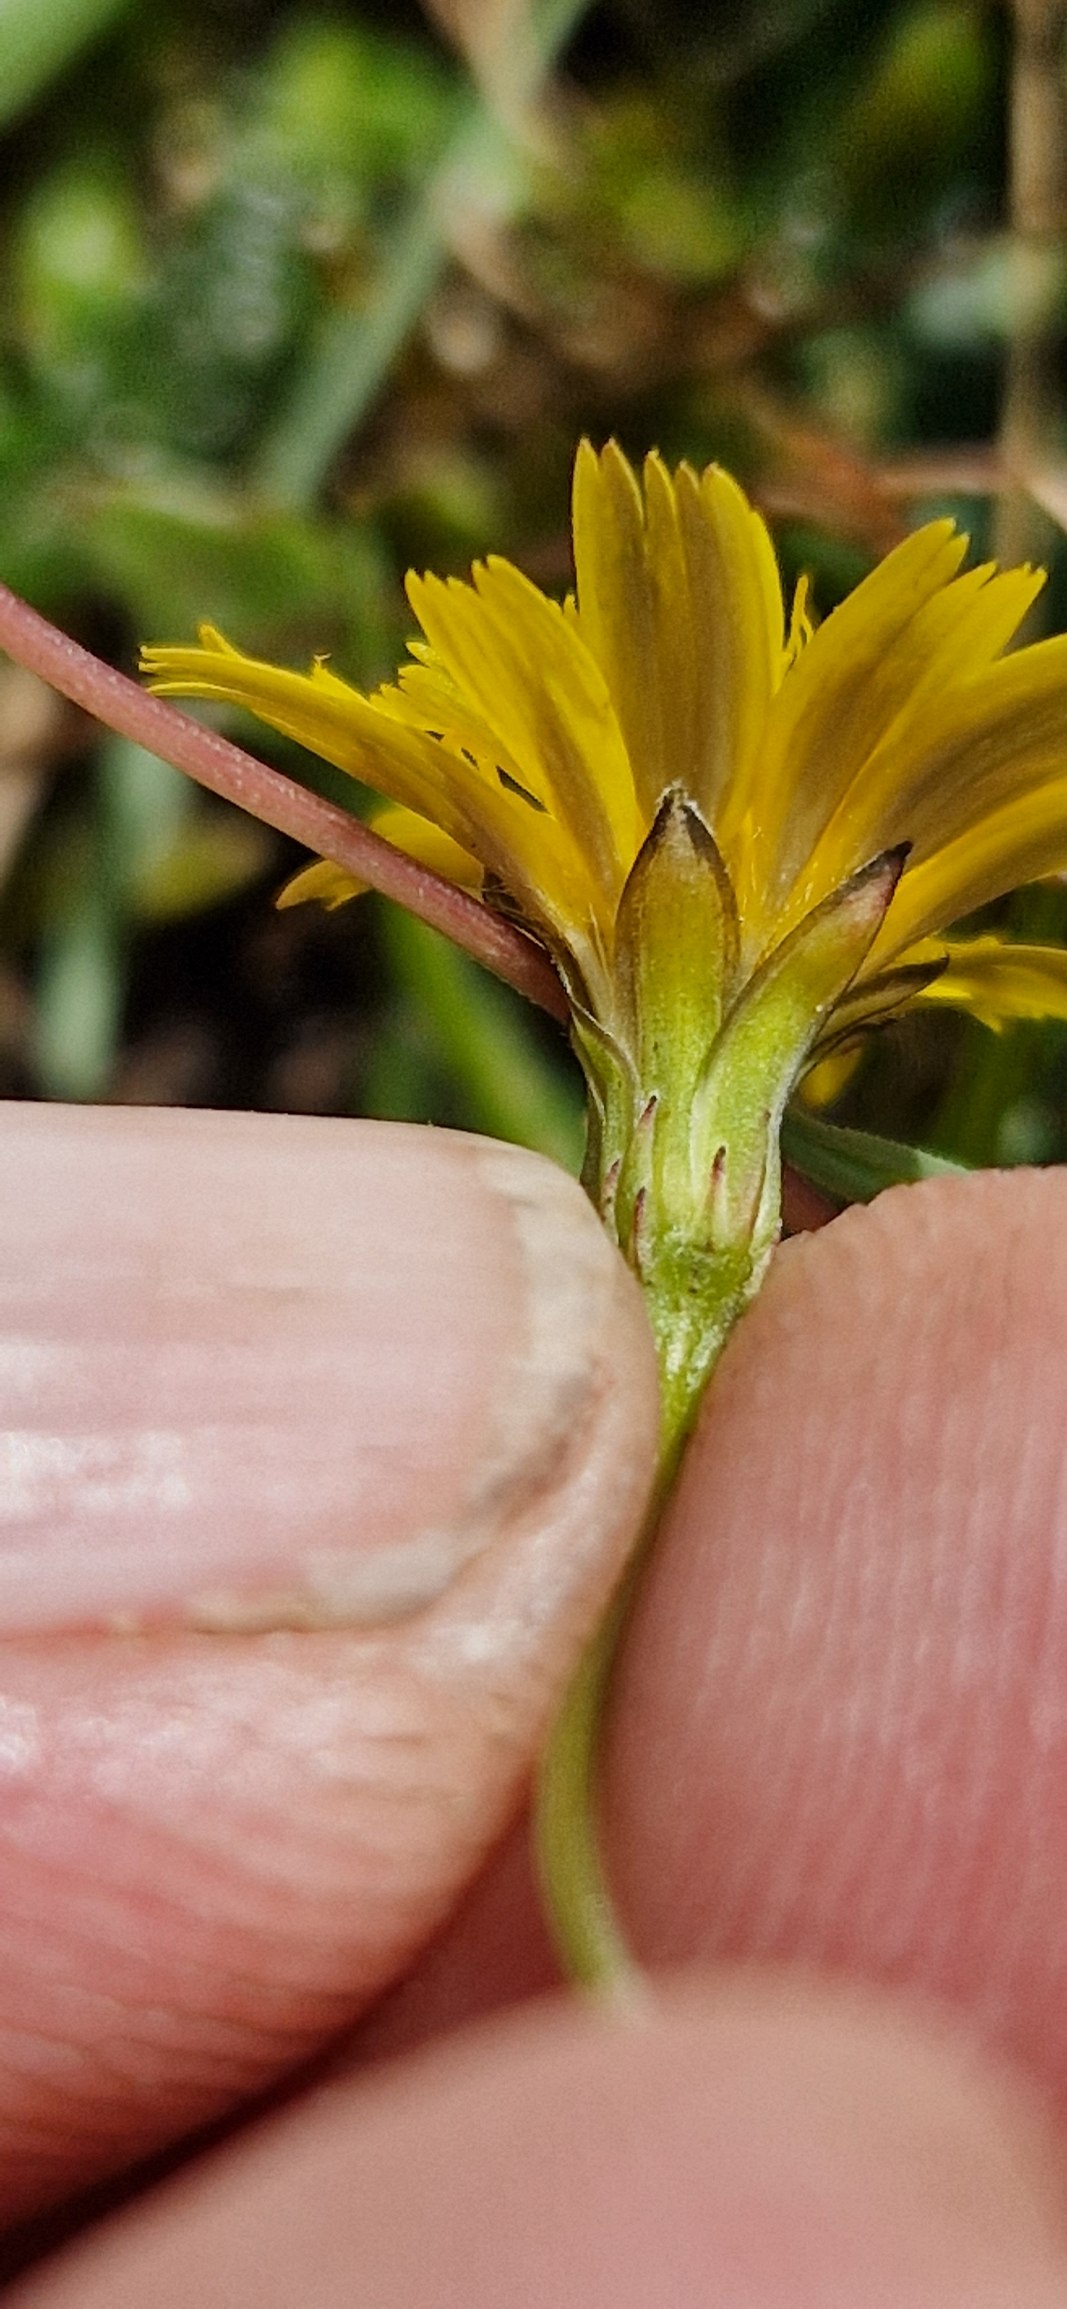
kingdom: Plantae
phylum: Tracheophyta
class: Magnoliopsida
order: Asterales
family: Asteraceae
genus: Thrincia
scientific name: Thrincia saxatilis
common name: Hundesalat
